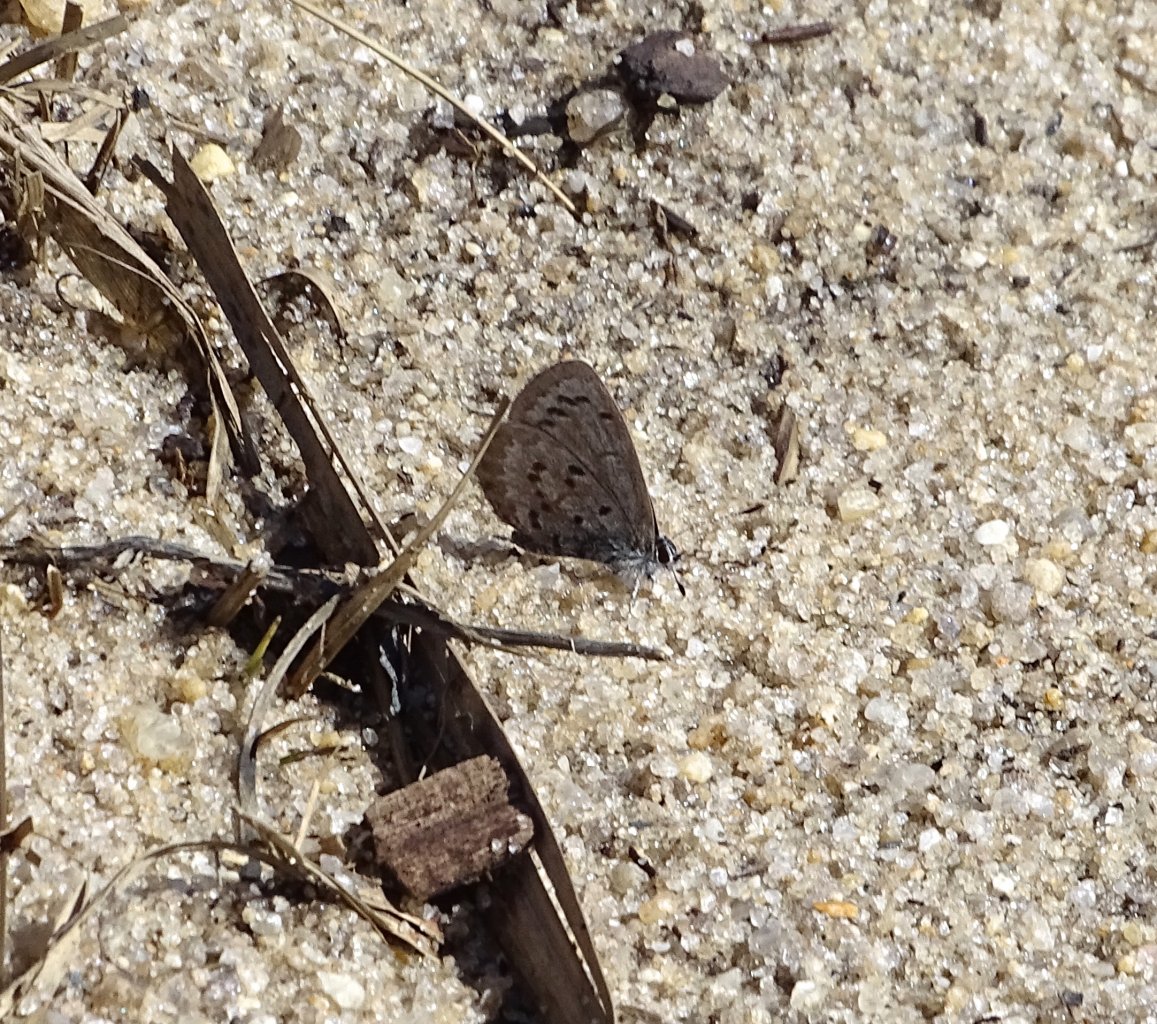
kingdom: Animalia
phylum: Arthropoda
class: Insecta
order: Lepidoptera
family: Lycaenidae
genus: Celastrina
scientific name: Celastrina ladon
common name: Spring Azure
